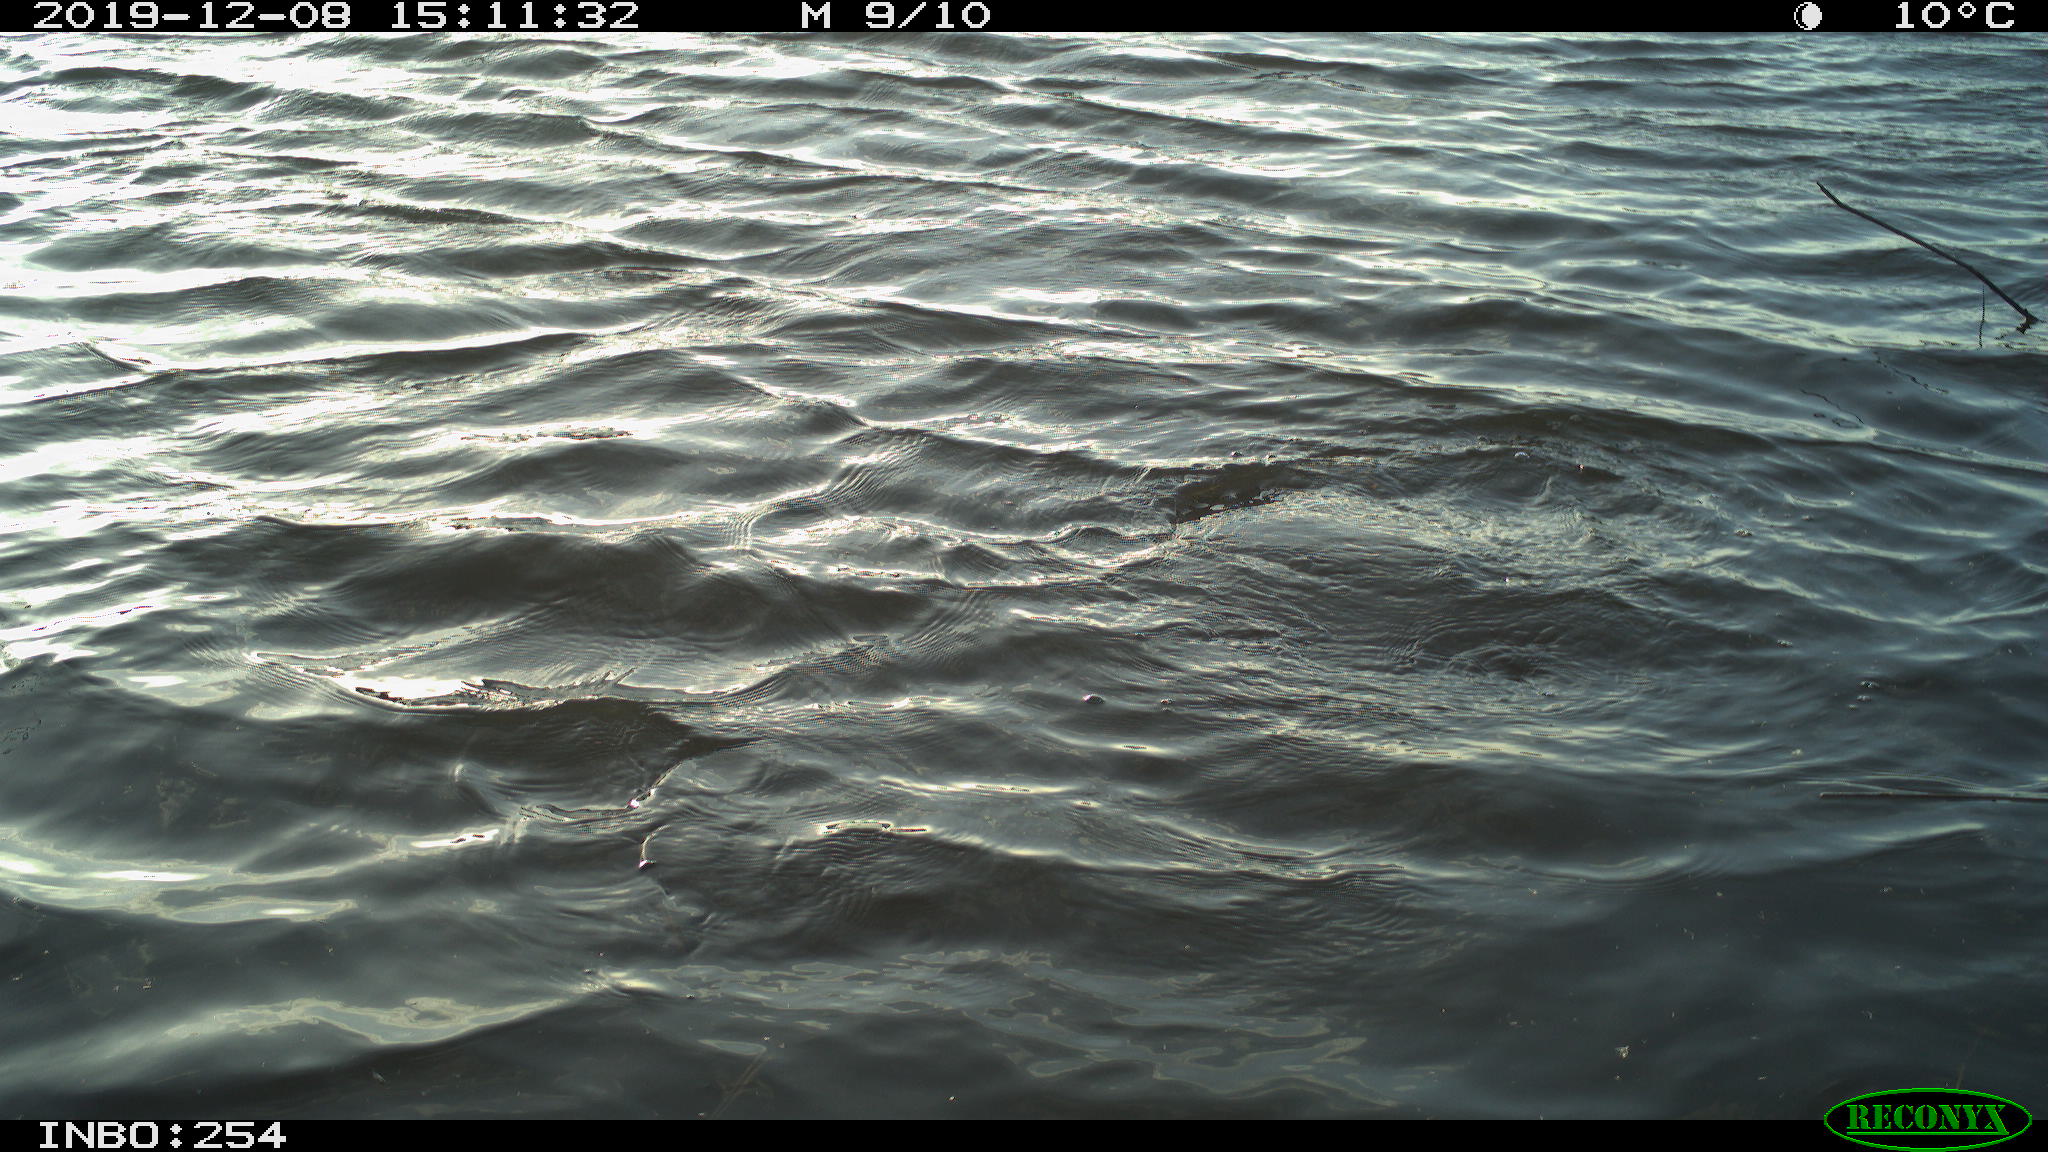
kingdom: Animalia
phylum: Chordata
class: Aves
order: Suliformes
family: Phalacrocoracidae
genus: Phalacrocorax
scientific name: Phalacrocorax carbo
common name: Great cormorant
